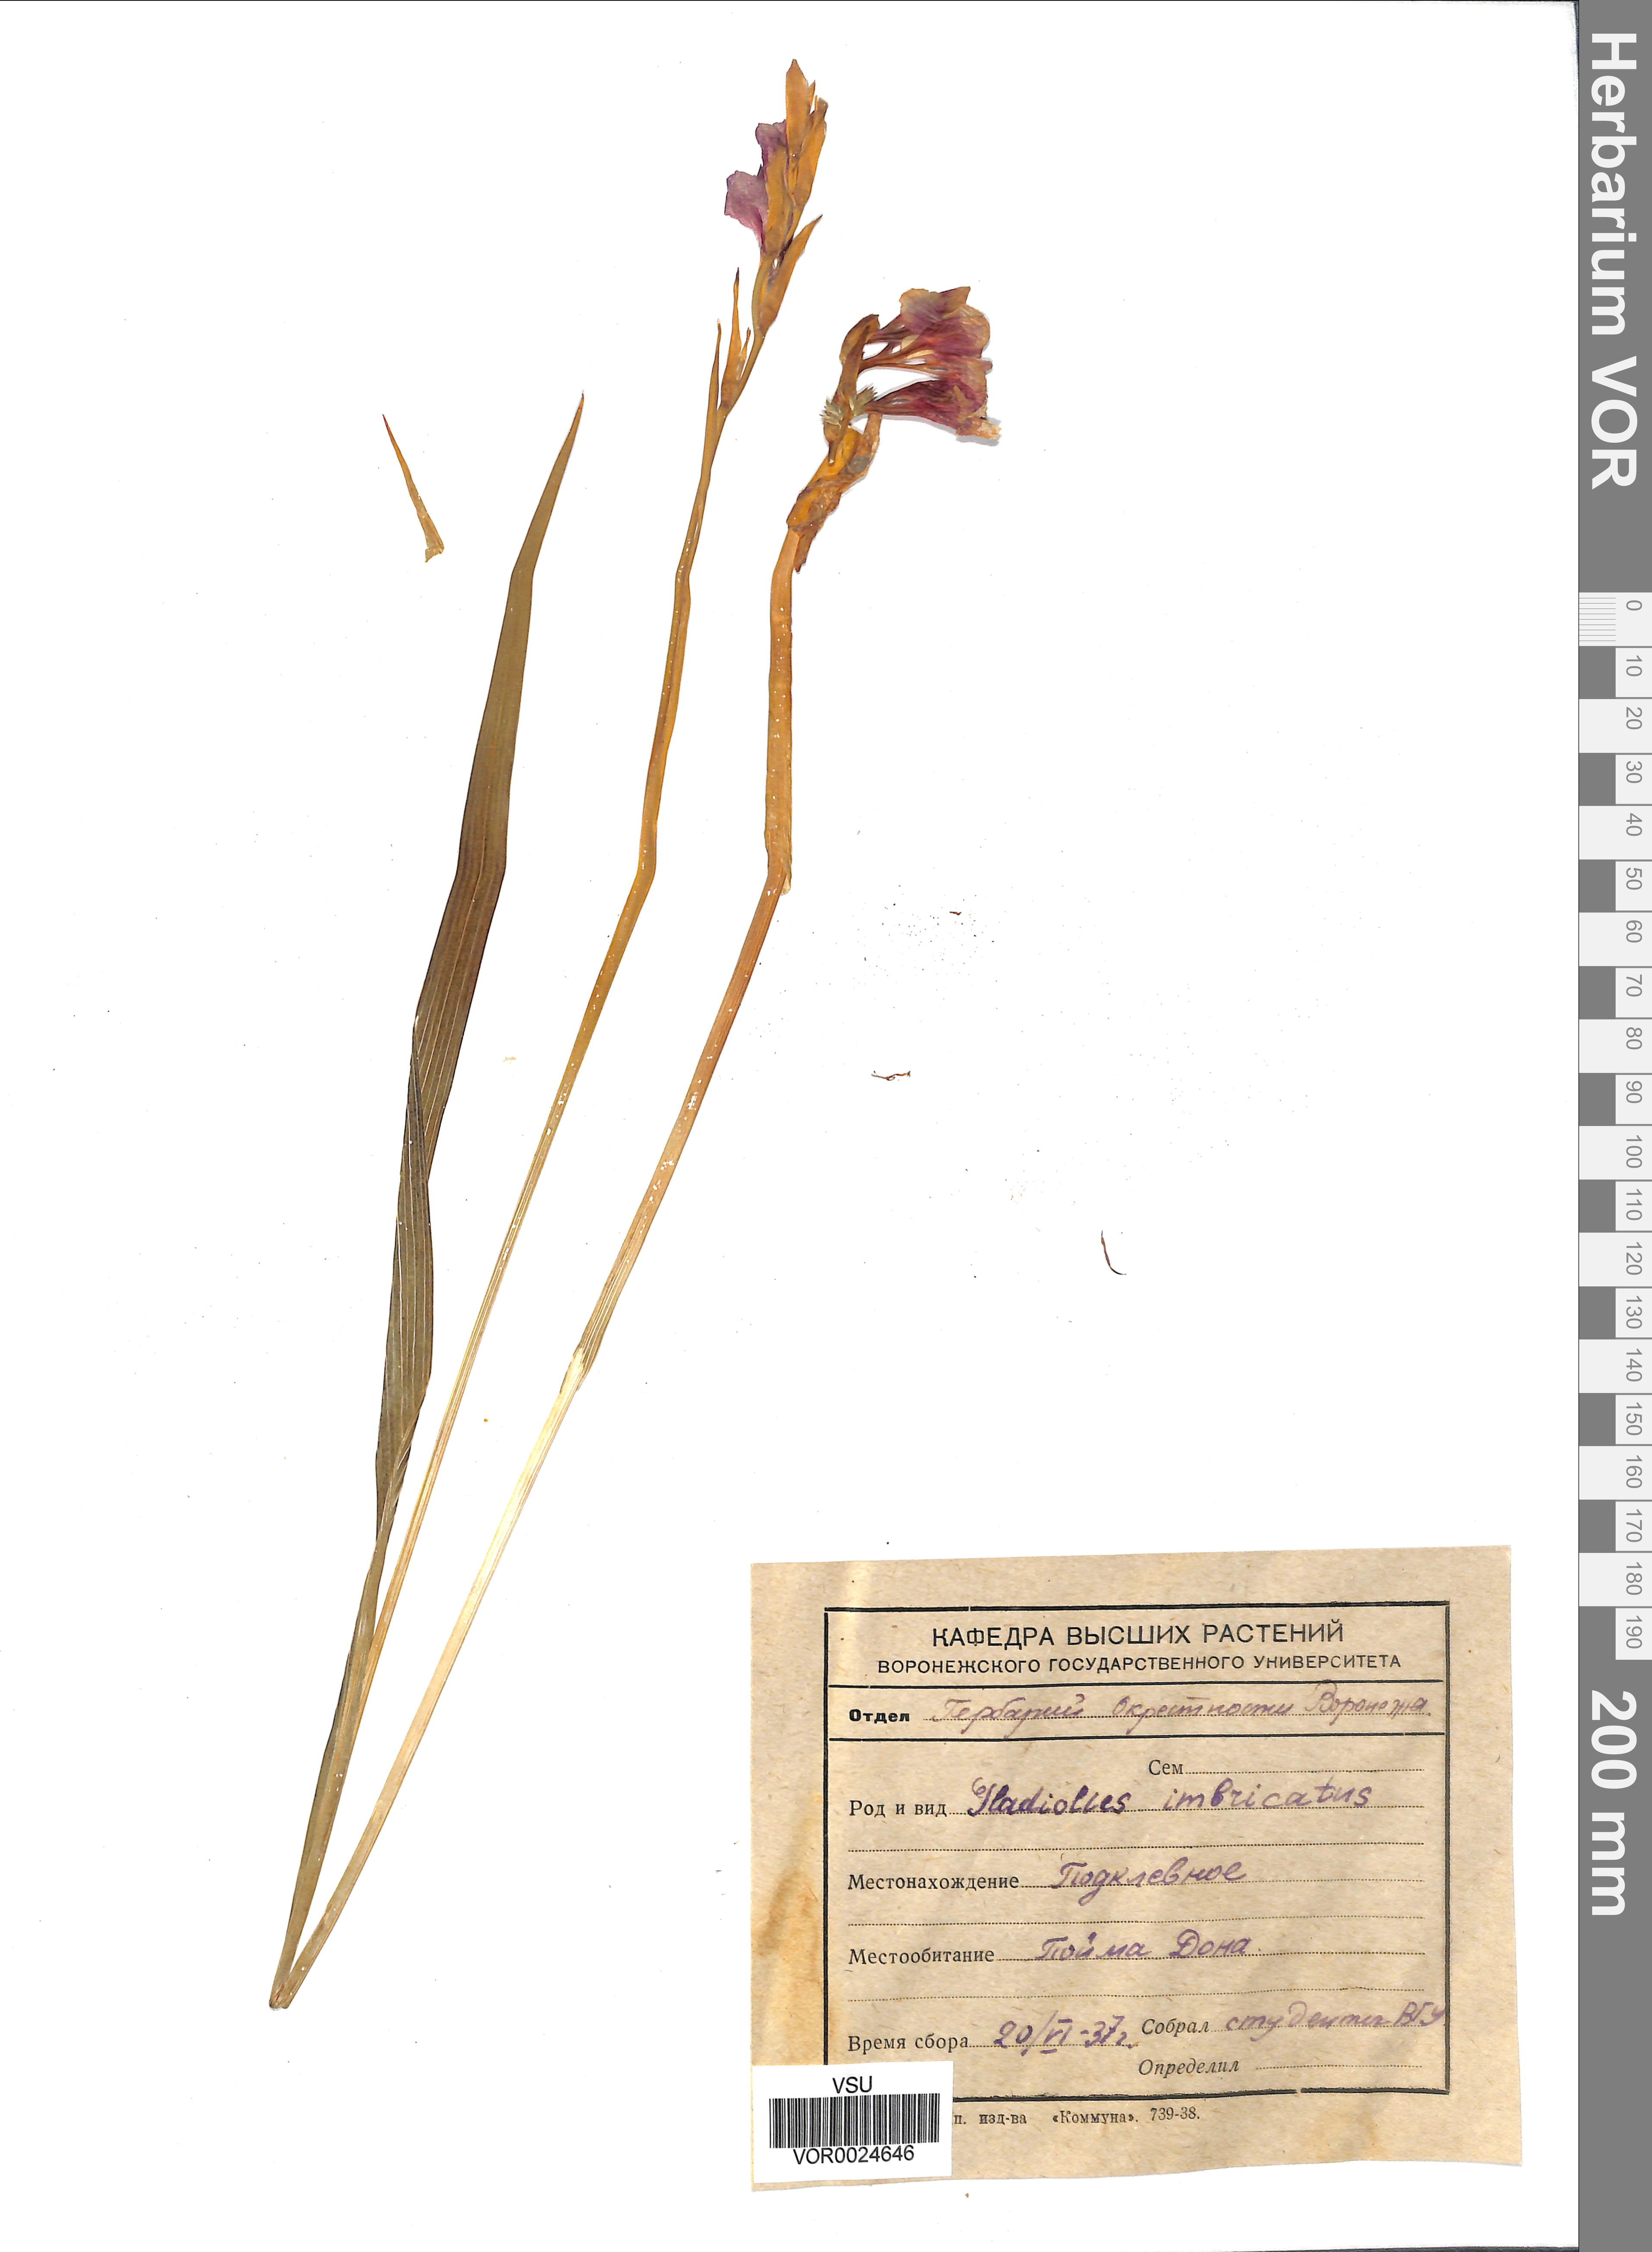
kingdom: Plantae
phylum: Tracheophyta
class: Liliopsida
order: Asparagales
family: Iridaceae
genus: Gladiolus
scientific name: Gladiolus tenuis
